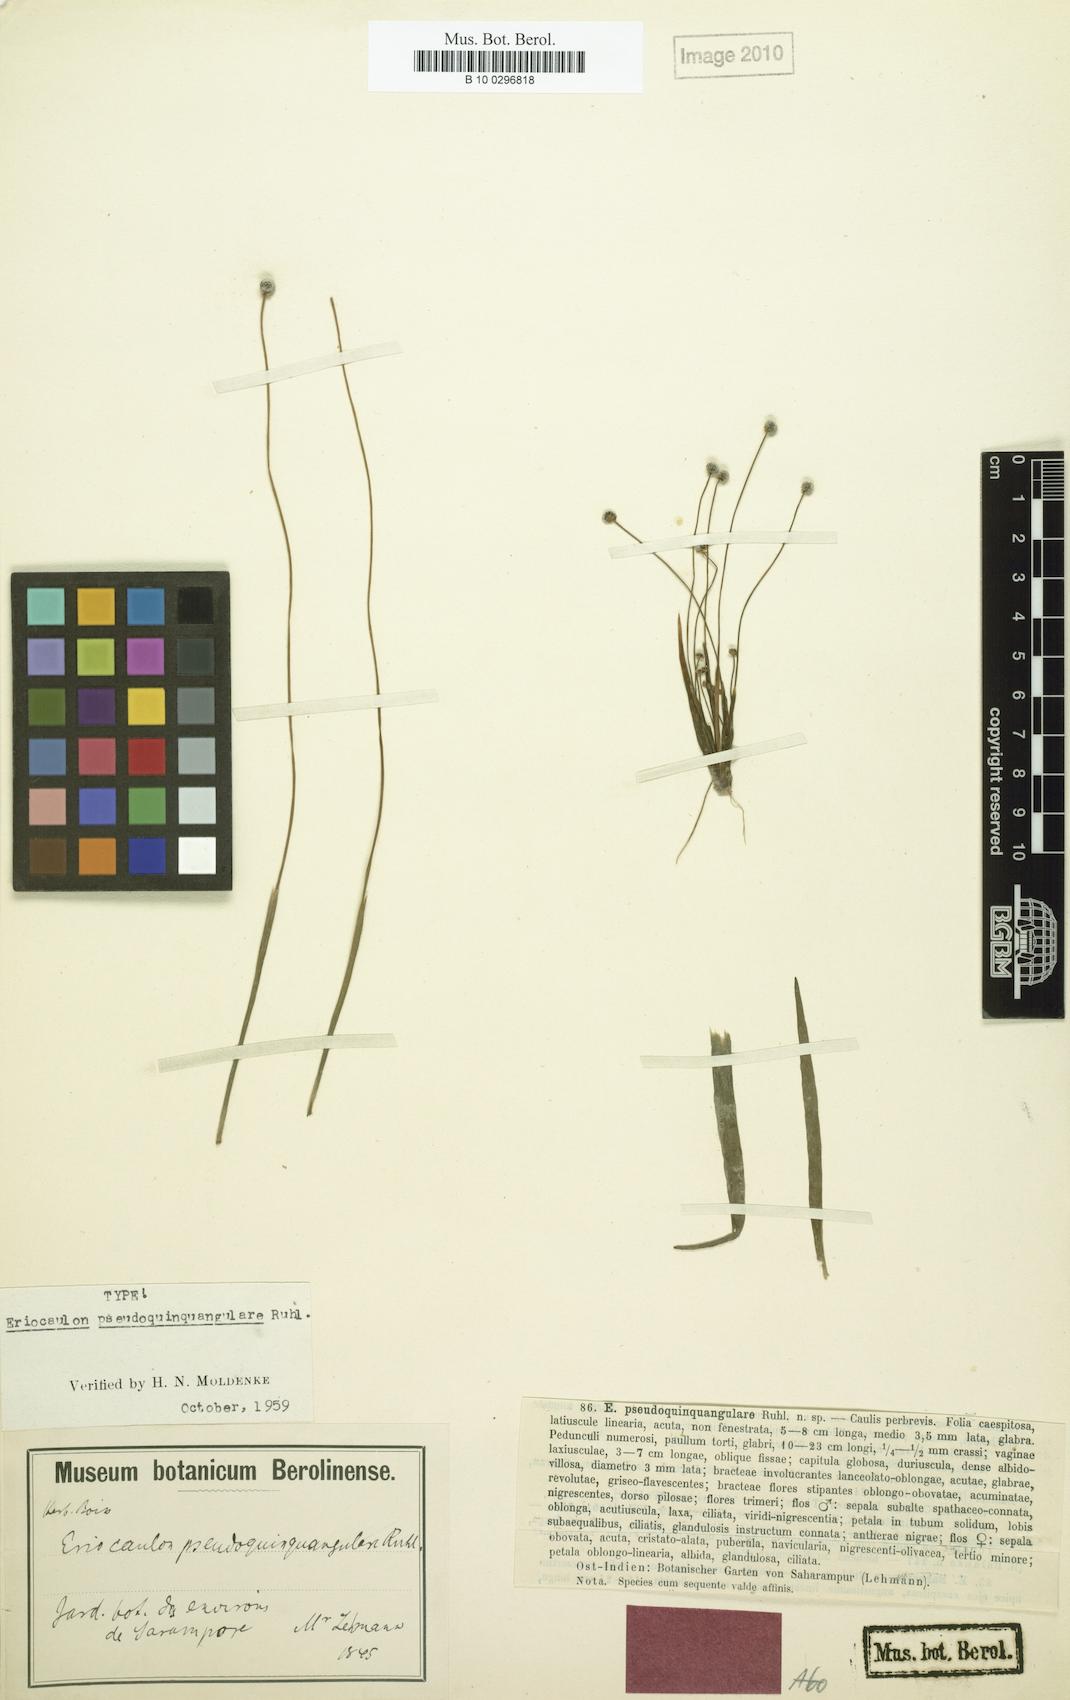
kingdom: Plantae
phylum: Tracheophyta
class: Liliopsida
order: Poales
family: Eriocaulaceae
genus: Eriocaulon
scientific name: Eriocaulon pseudoquinquangulare
